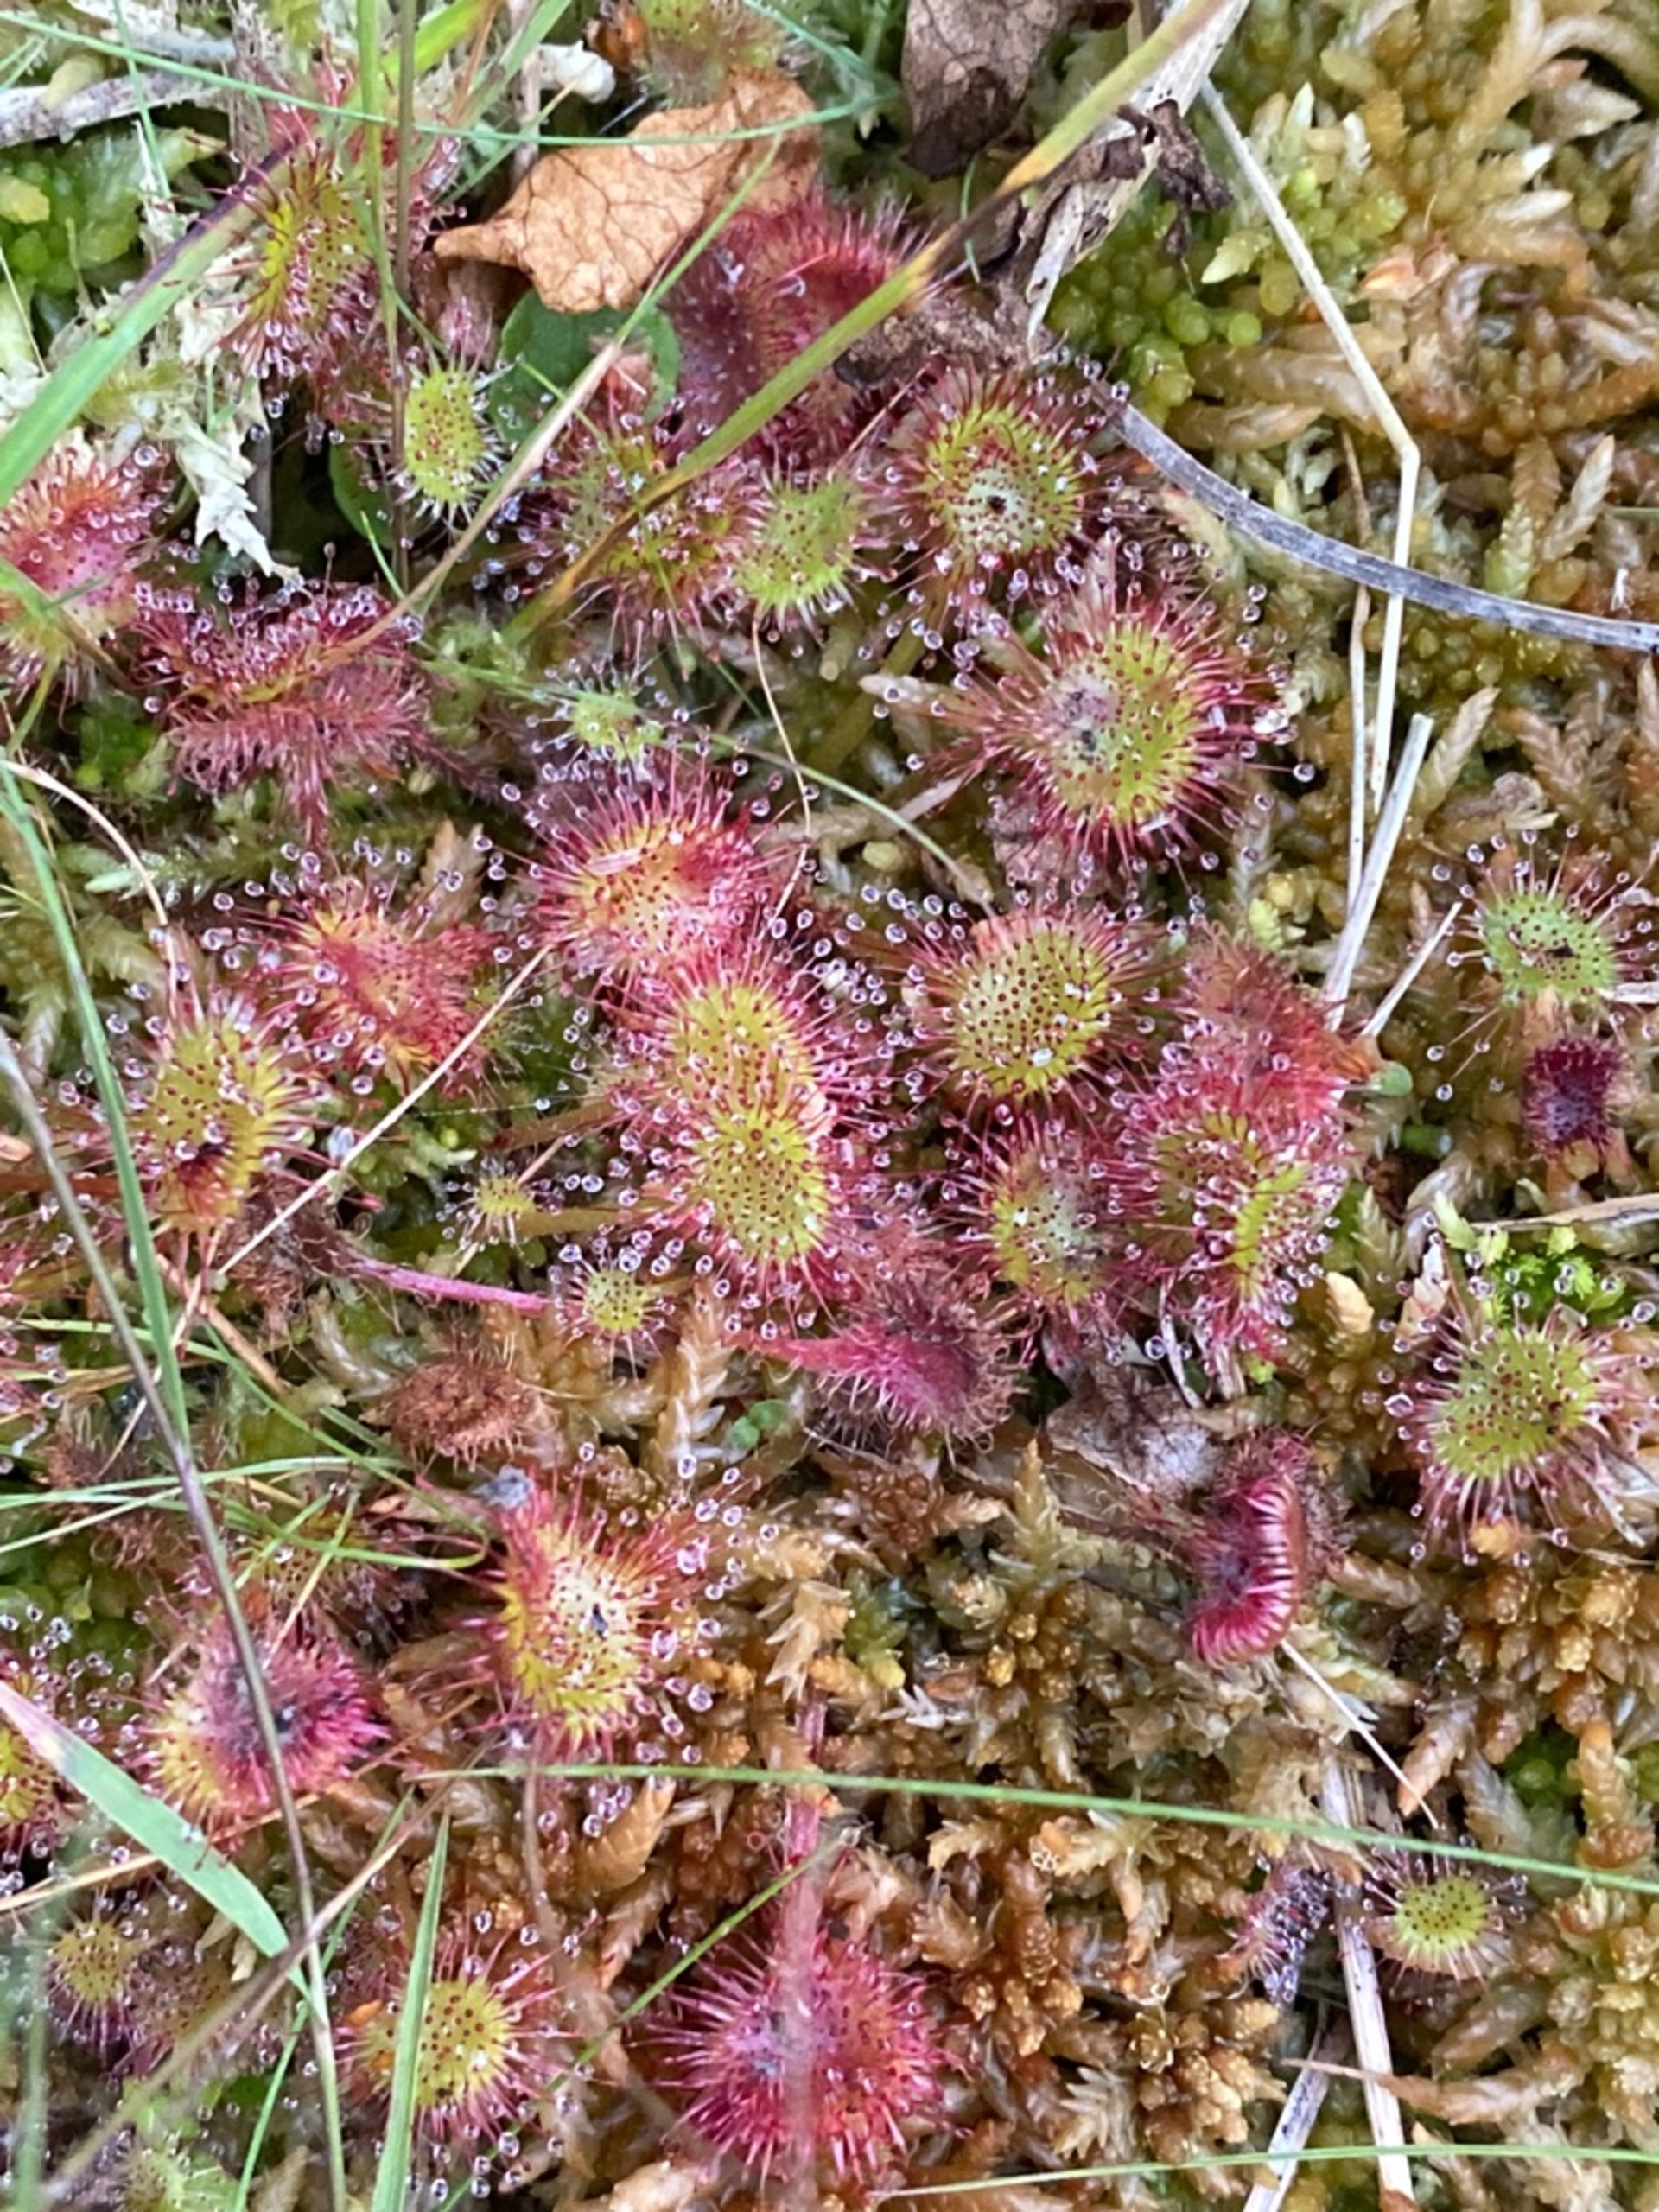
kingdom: Plantae
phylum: Tracheophyta
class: Magnoliopsida
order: Caryophyllales
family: Droseraceae
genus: Drosera
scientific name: Drosera rotundifolia
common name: Rundbladet soldug
